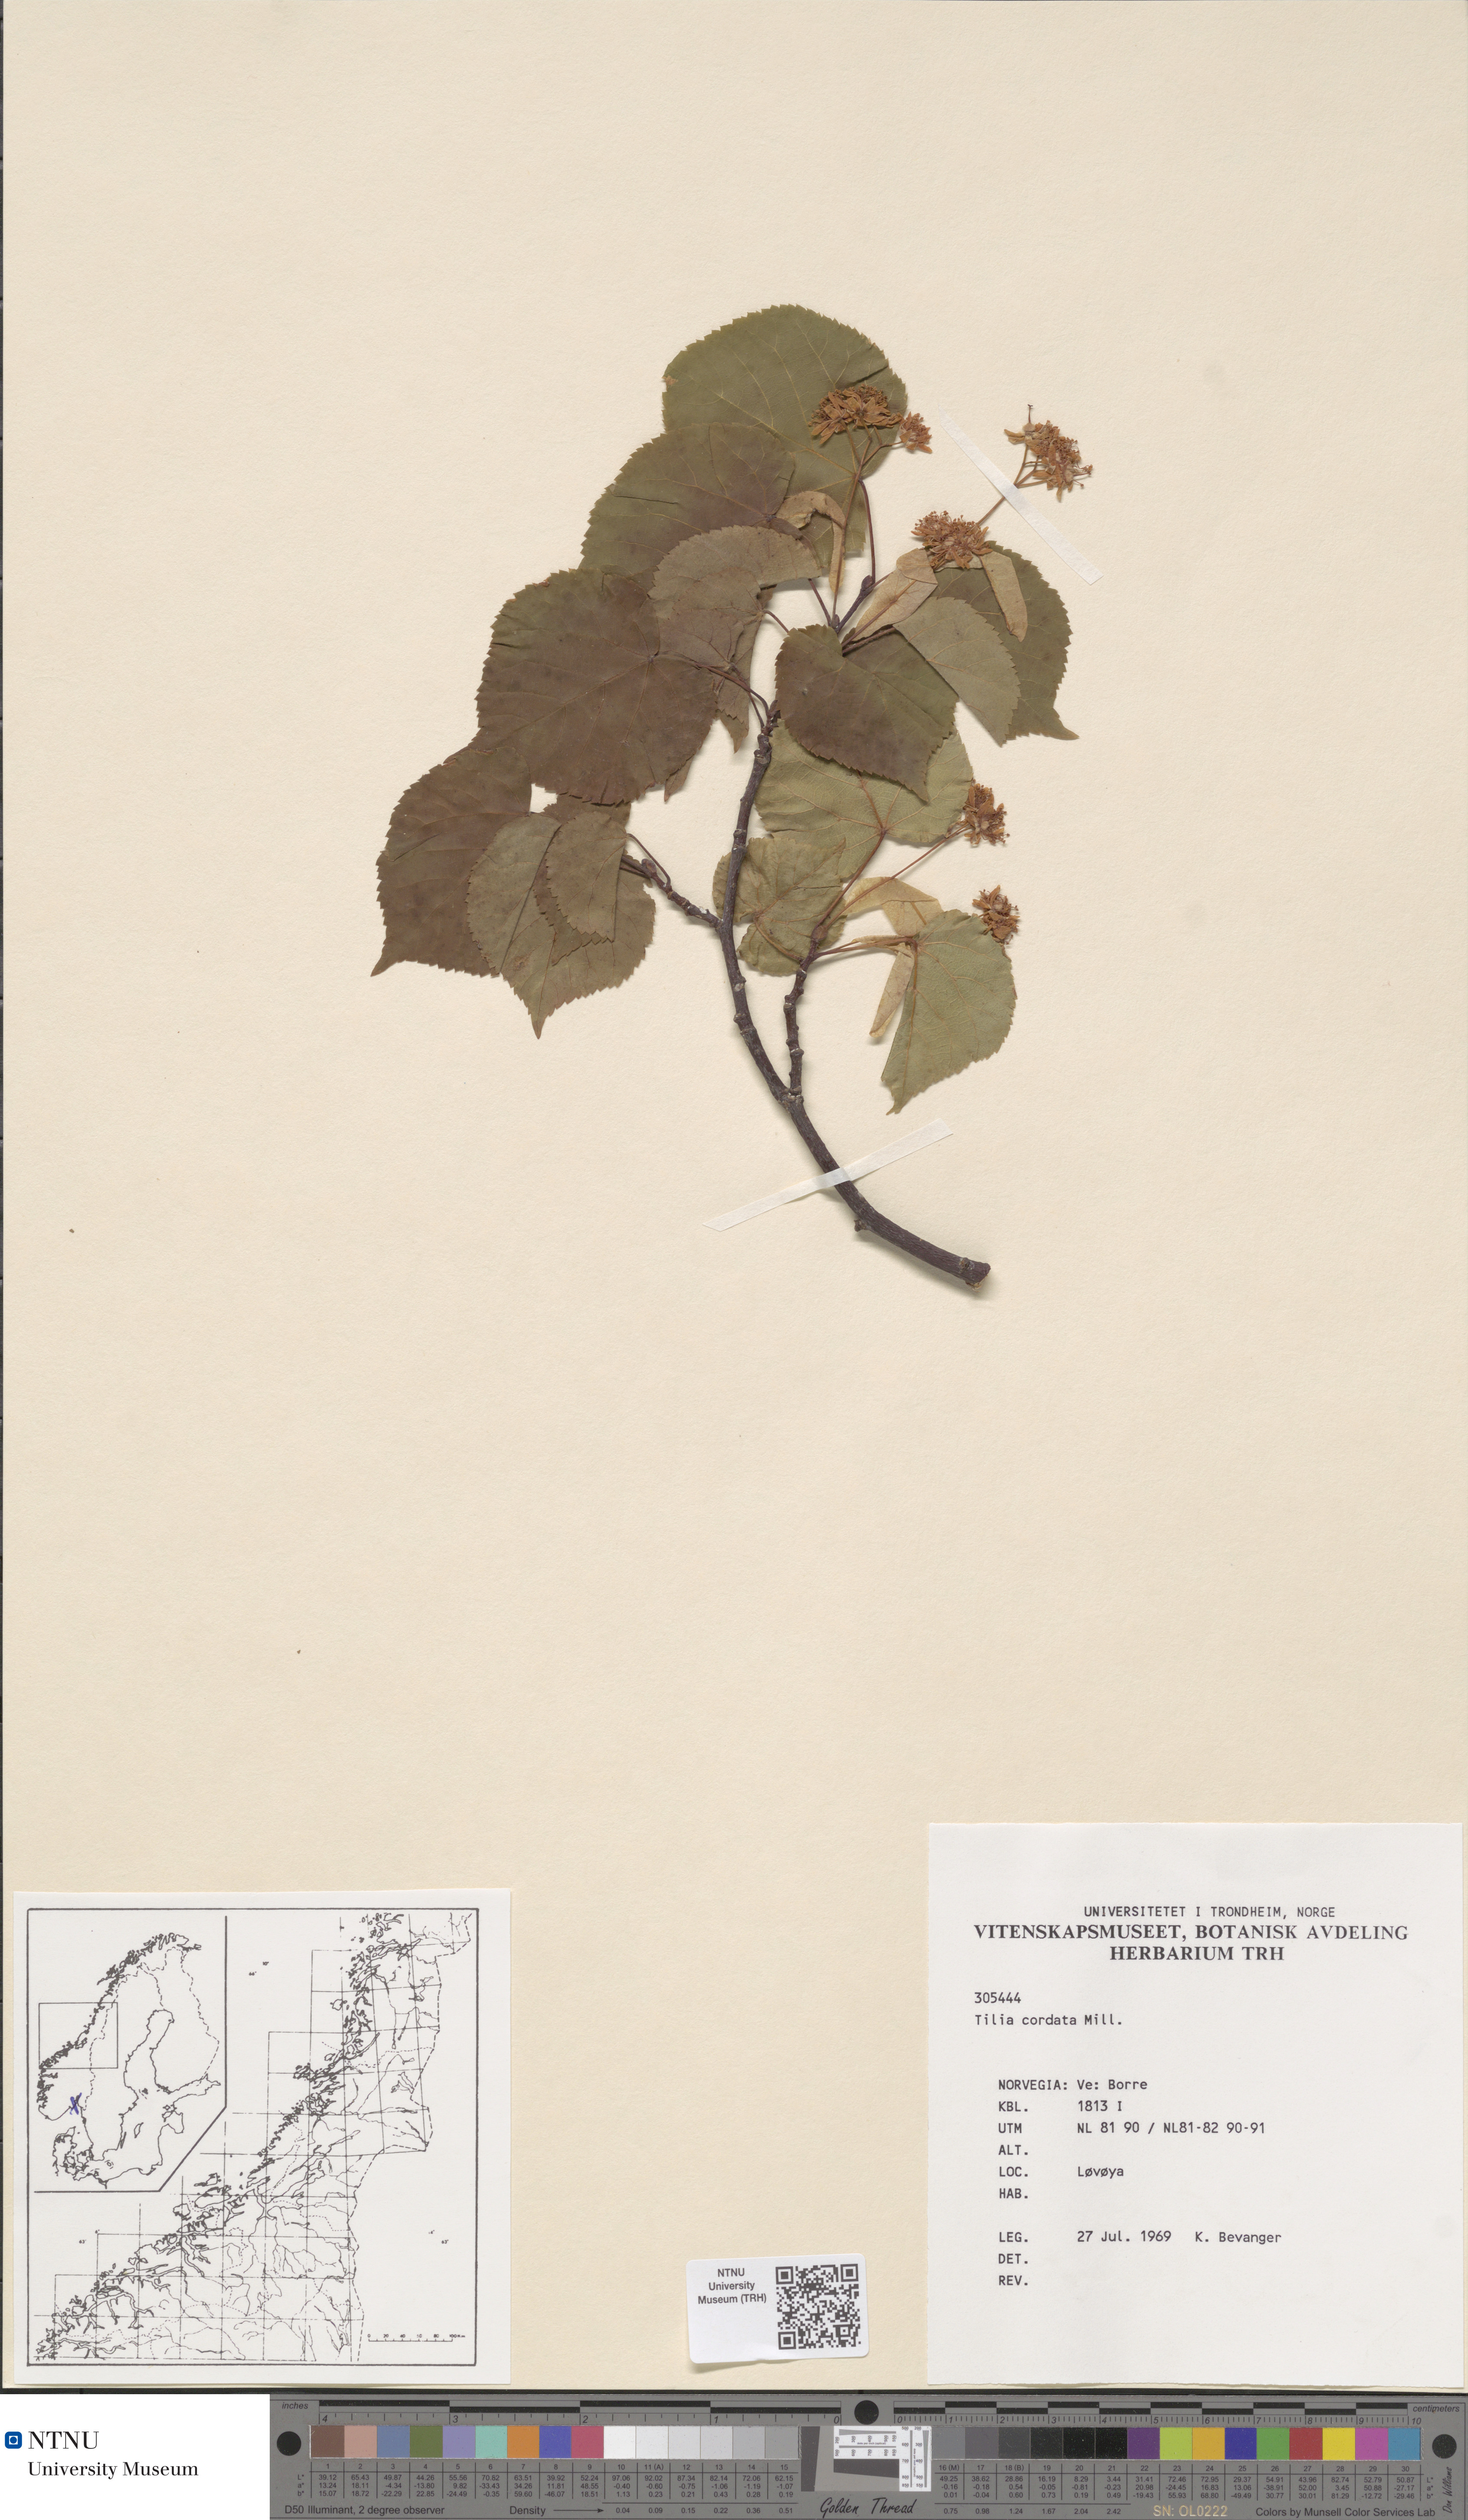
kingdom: Plantae
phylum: Tracheophyta
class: Magnoliopsida
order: Malvales
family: Malvaceae
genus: Tilia
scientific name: Tilia europaea
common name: European linden
